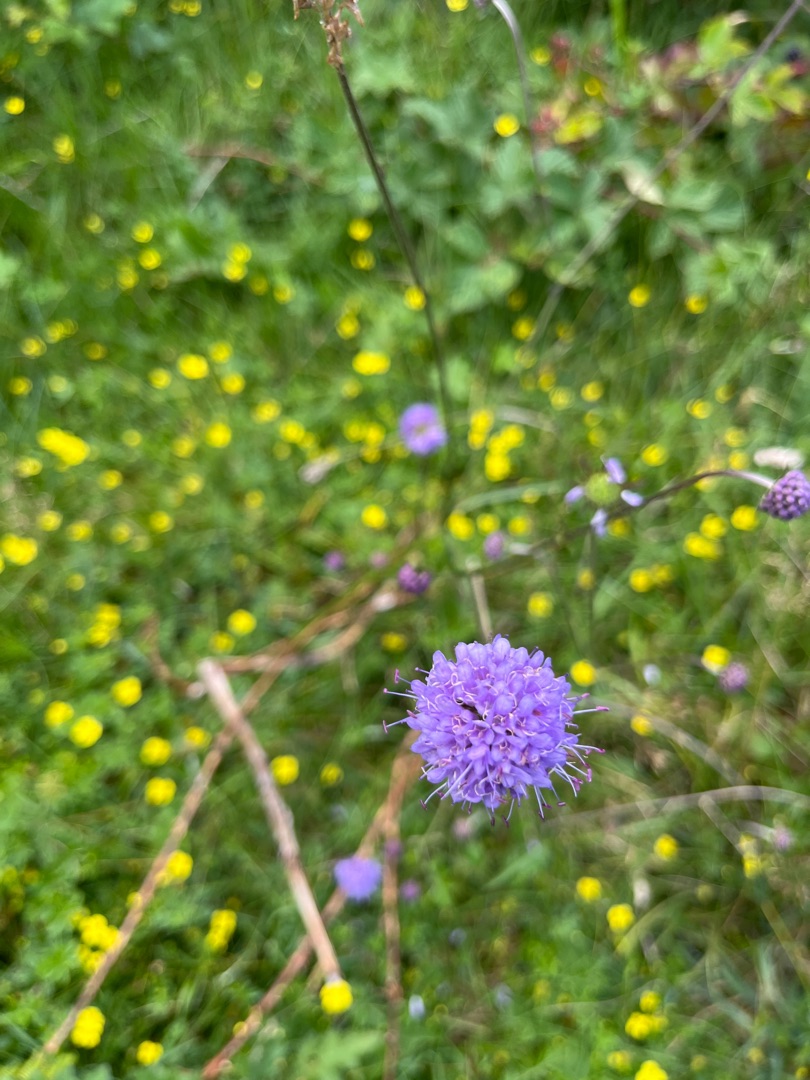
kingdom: Plantae
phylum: Tracheophyta
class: Magnoliopsida
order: Dipsacales
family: Caprifoliaceae
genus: Succisa
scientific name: Succisa pratensis
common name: Djævelsbid
